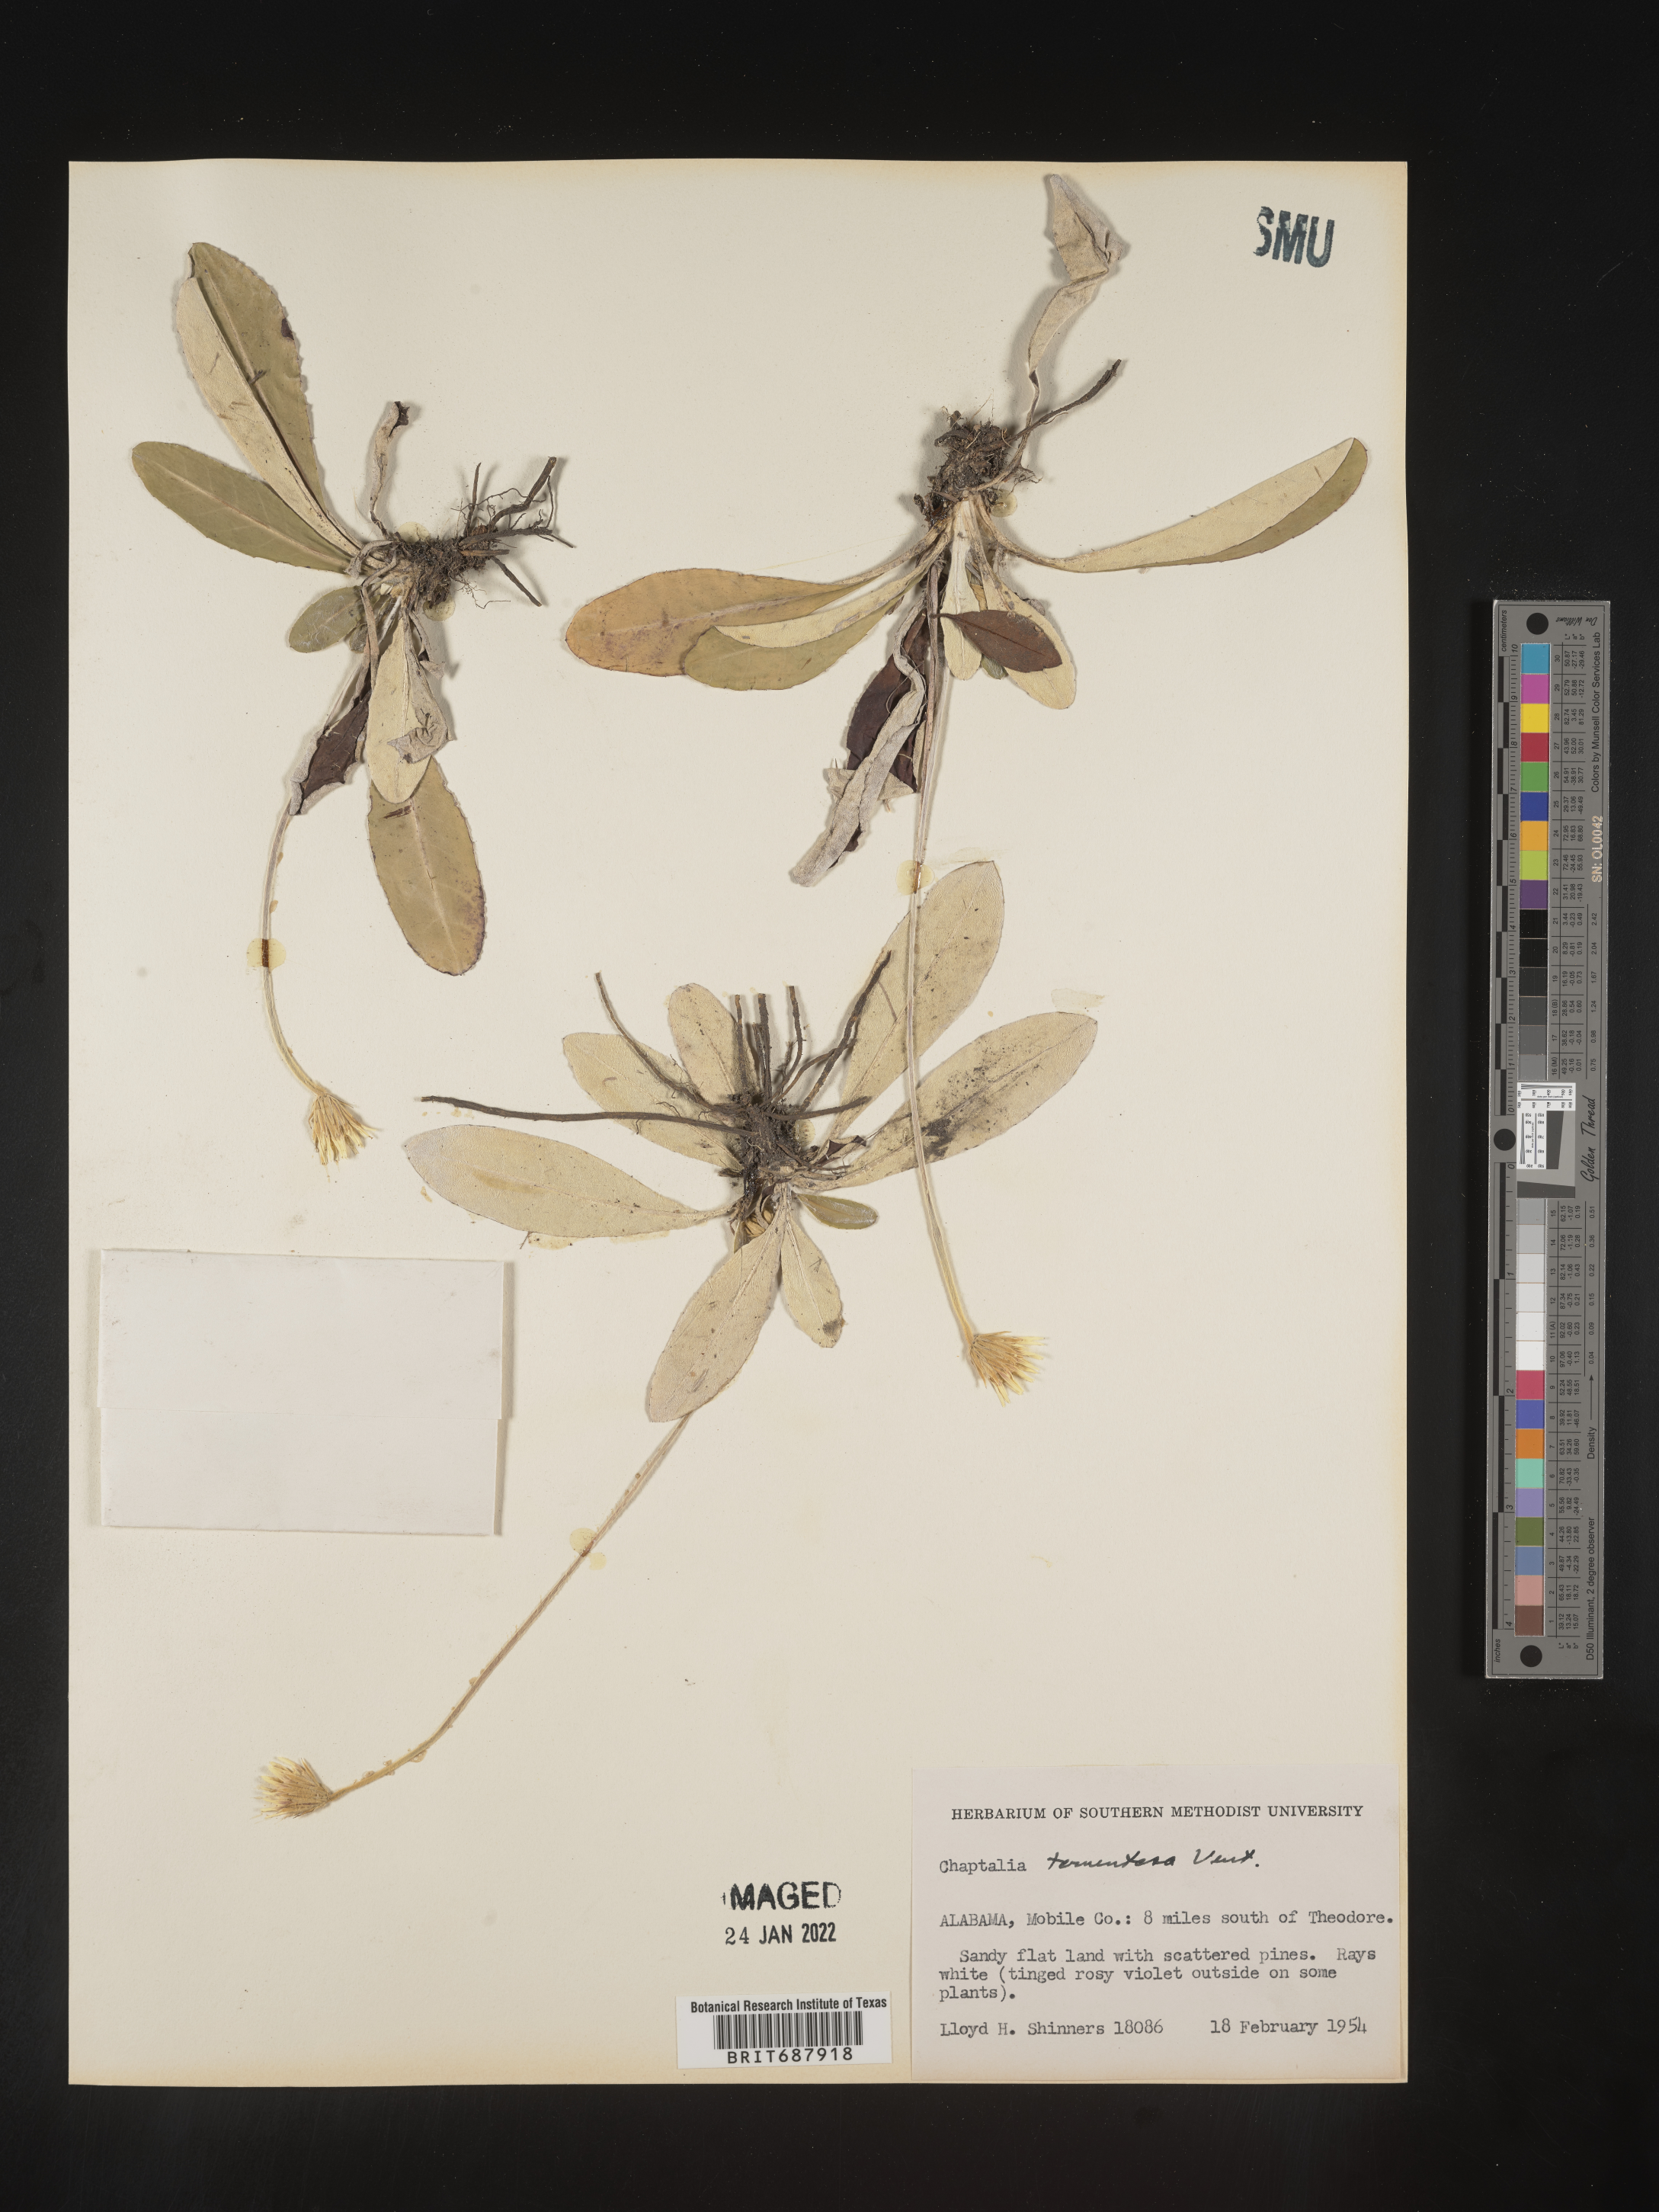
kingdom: Plantae
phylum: Tracheophyta
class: Magnoliopsida
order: Asterales
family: Asteraceae
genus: Chaptalia
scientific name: Chaptalia tomentosa
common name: Woolly sunbonnet
